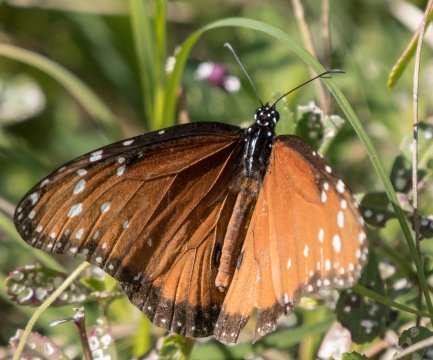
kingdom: Animalia
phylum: Arthropoda
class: Insecta
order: Lepidoptera
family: Nymphalidae
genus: Danaus
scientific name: Danaus eresimus
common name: Soldier
